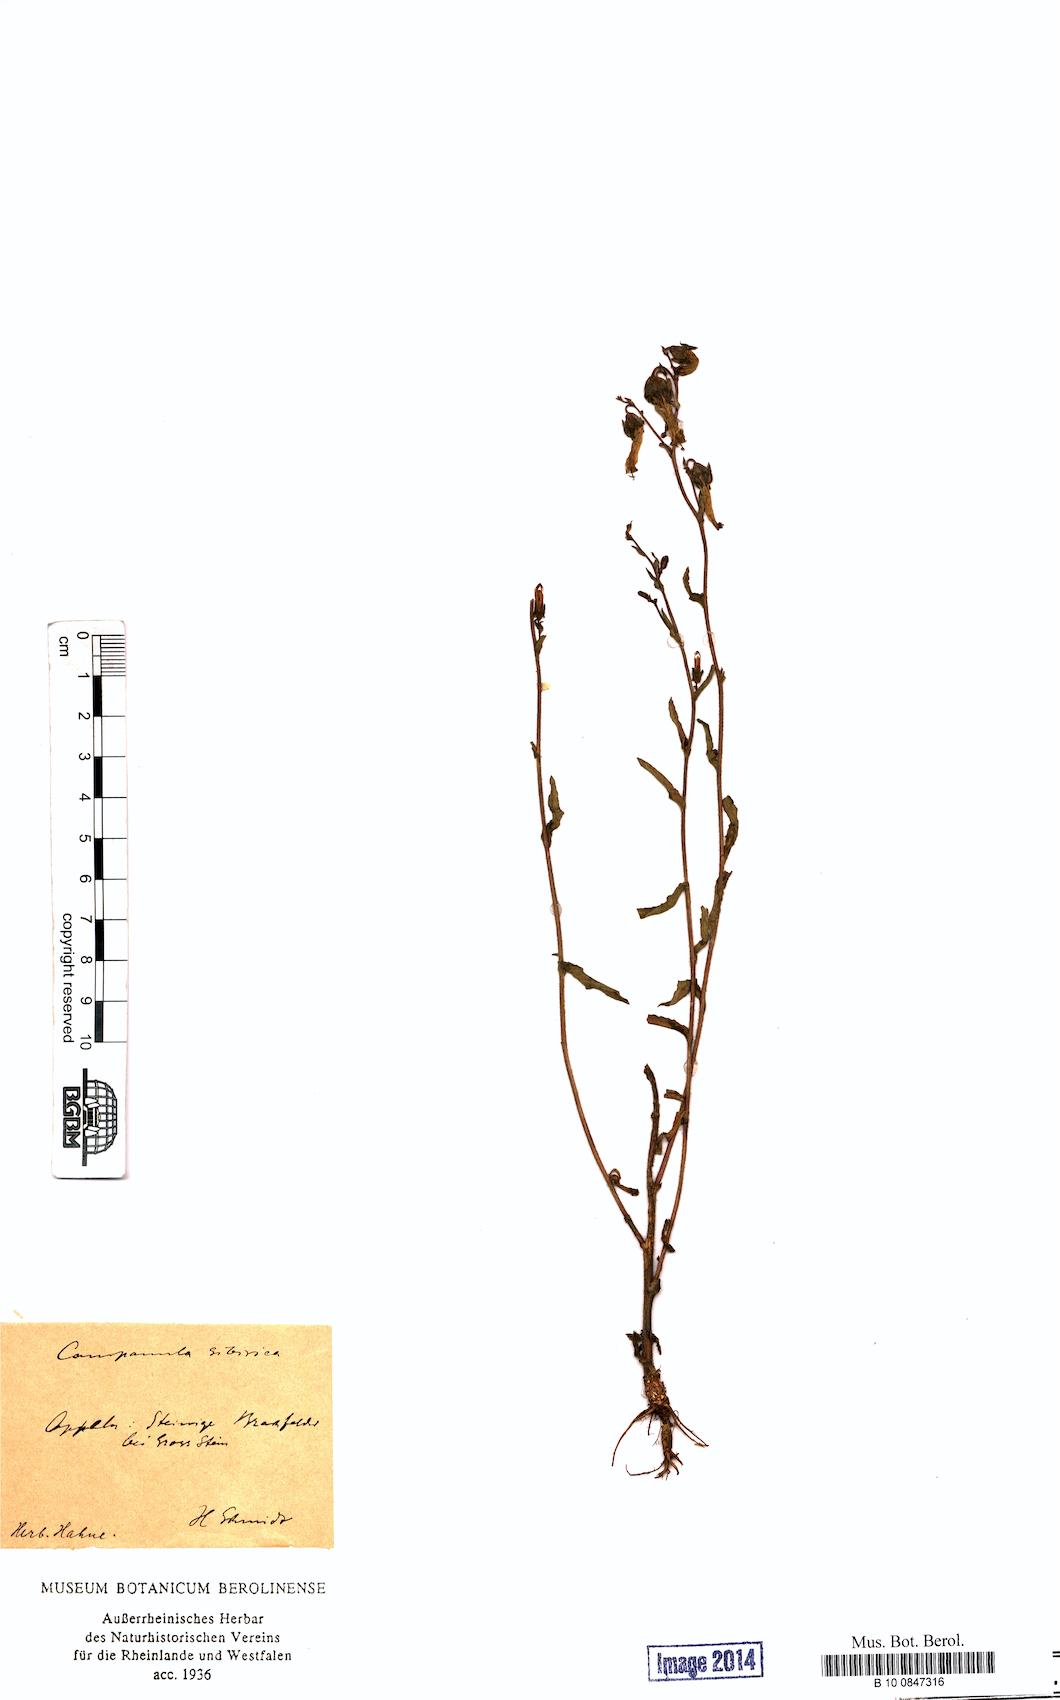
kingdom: Plantae
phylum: Tracheophyta
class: Magnoliopsida
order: Asterales
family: Campanulaceae
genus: Campanula
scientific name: Campanula sibirica
